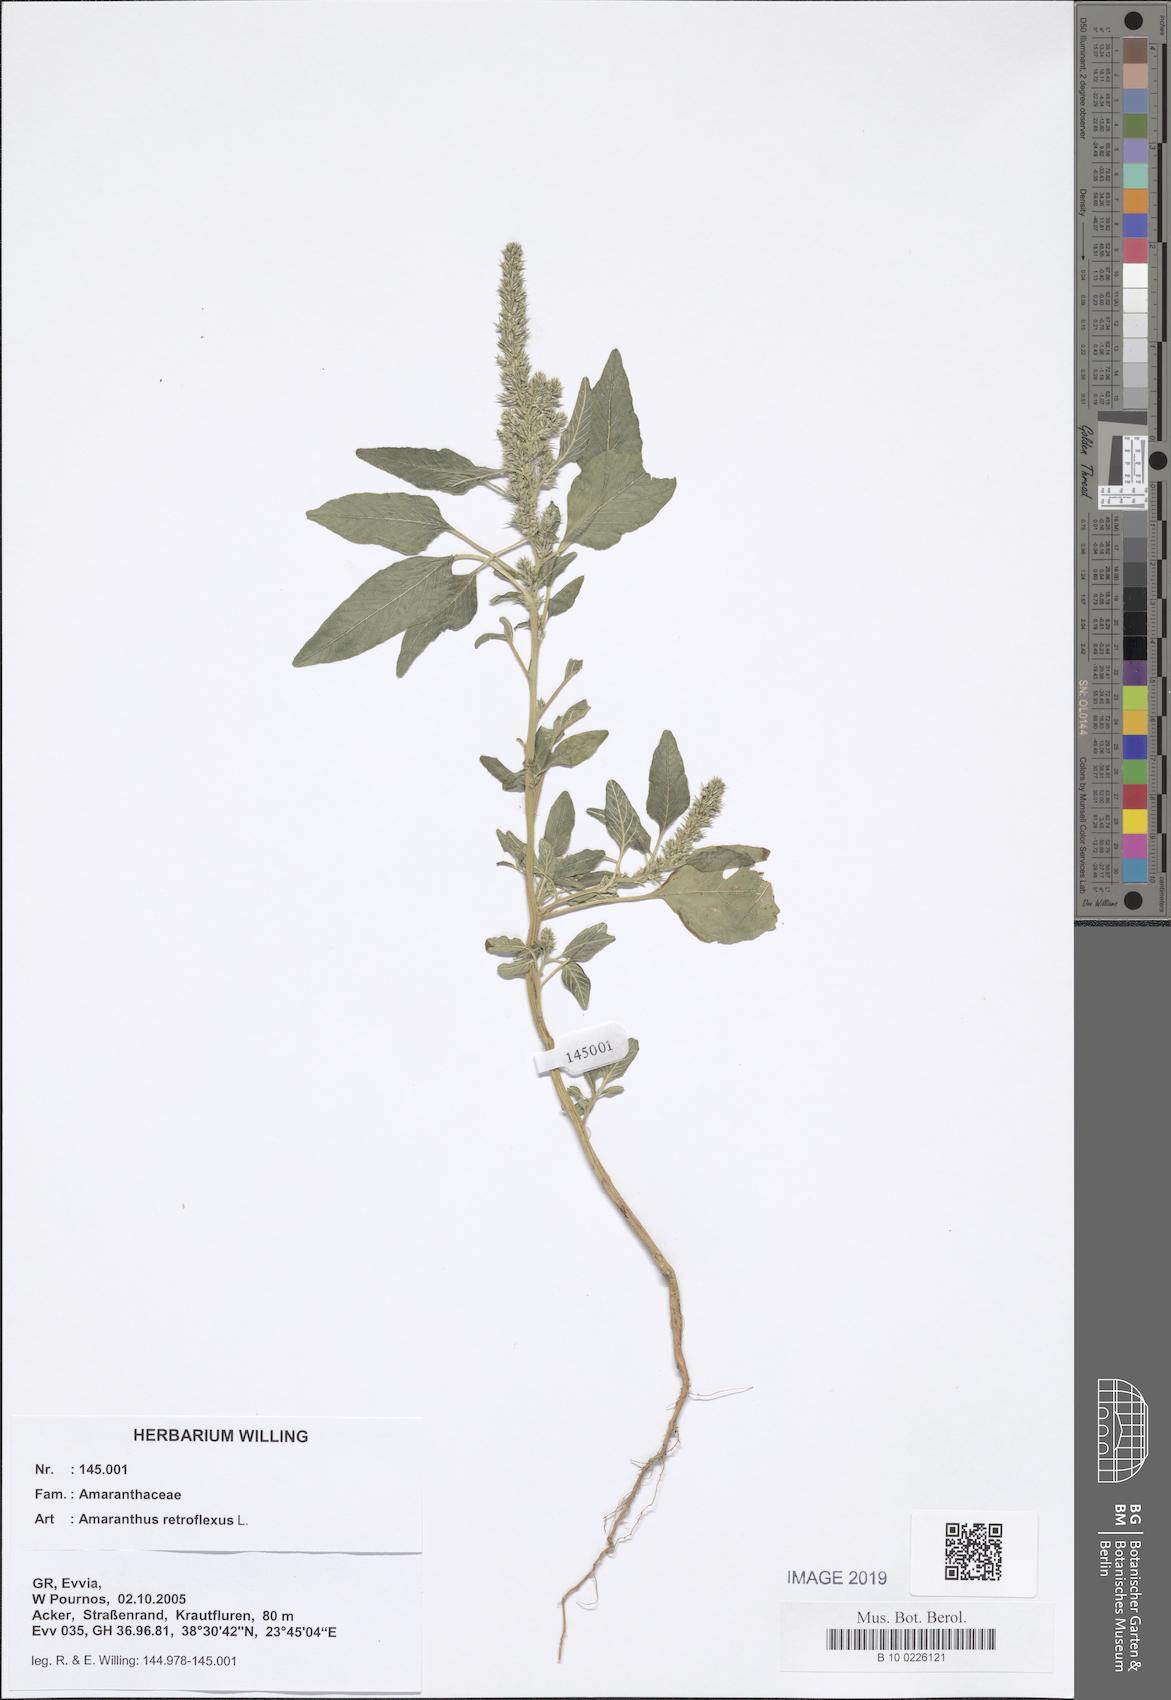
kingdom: Plantae
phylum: Tracheophyta
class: Magnoliopsida
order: Caryophyllales
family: Amaranthaceae
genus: Amaranthus
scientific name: Amaranthus retroflexus
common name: Redroot amaranth
